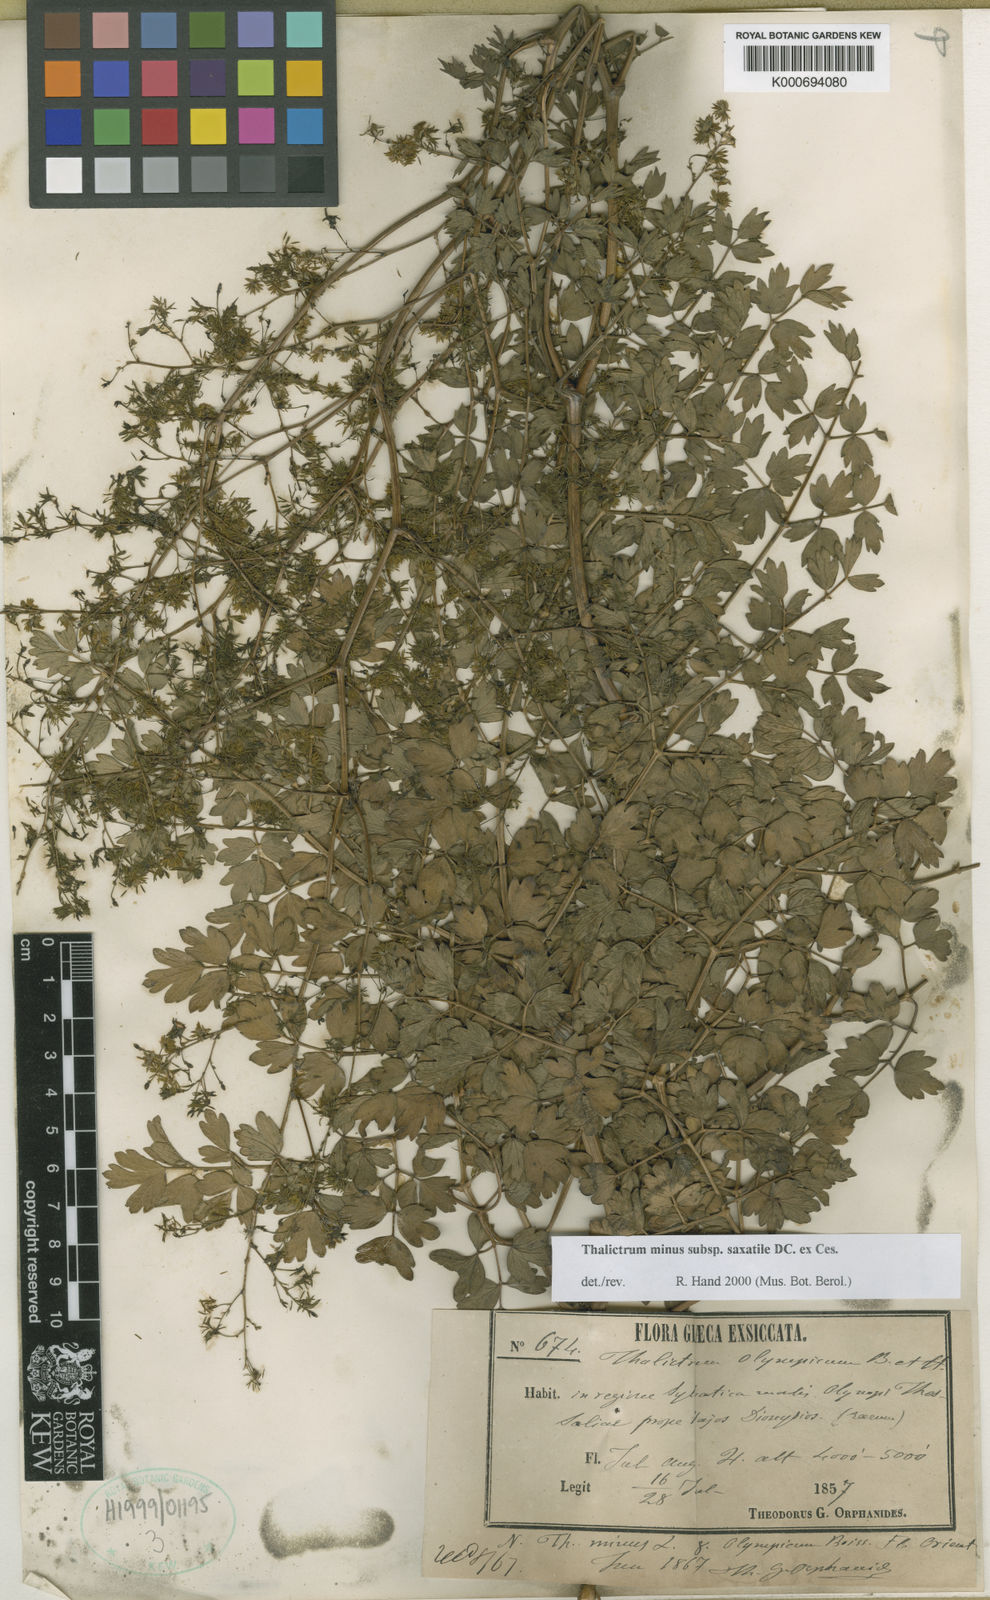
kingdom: Plantae
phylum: Tracheophyta
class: Magnoliopsida
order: Ranunculales
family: Ranunculaceae
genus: Thalictrum
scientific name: Thalictrum minus
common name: Lesser meadow-rue
